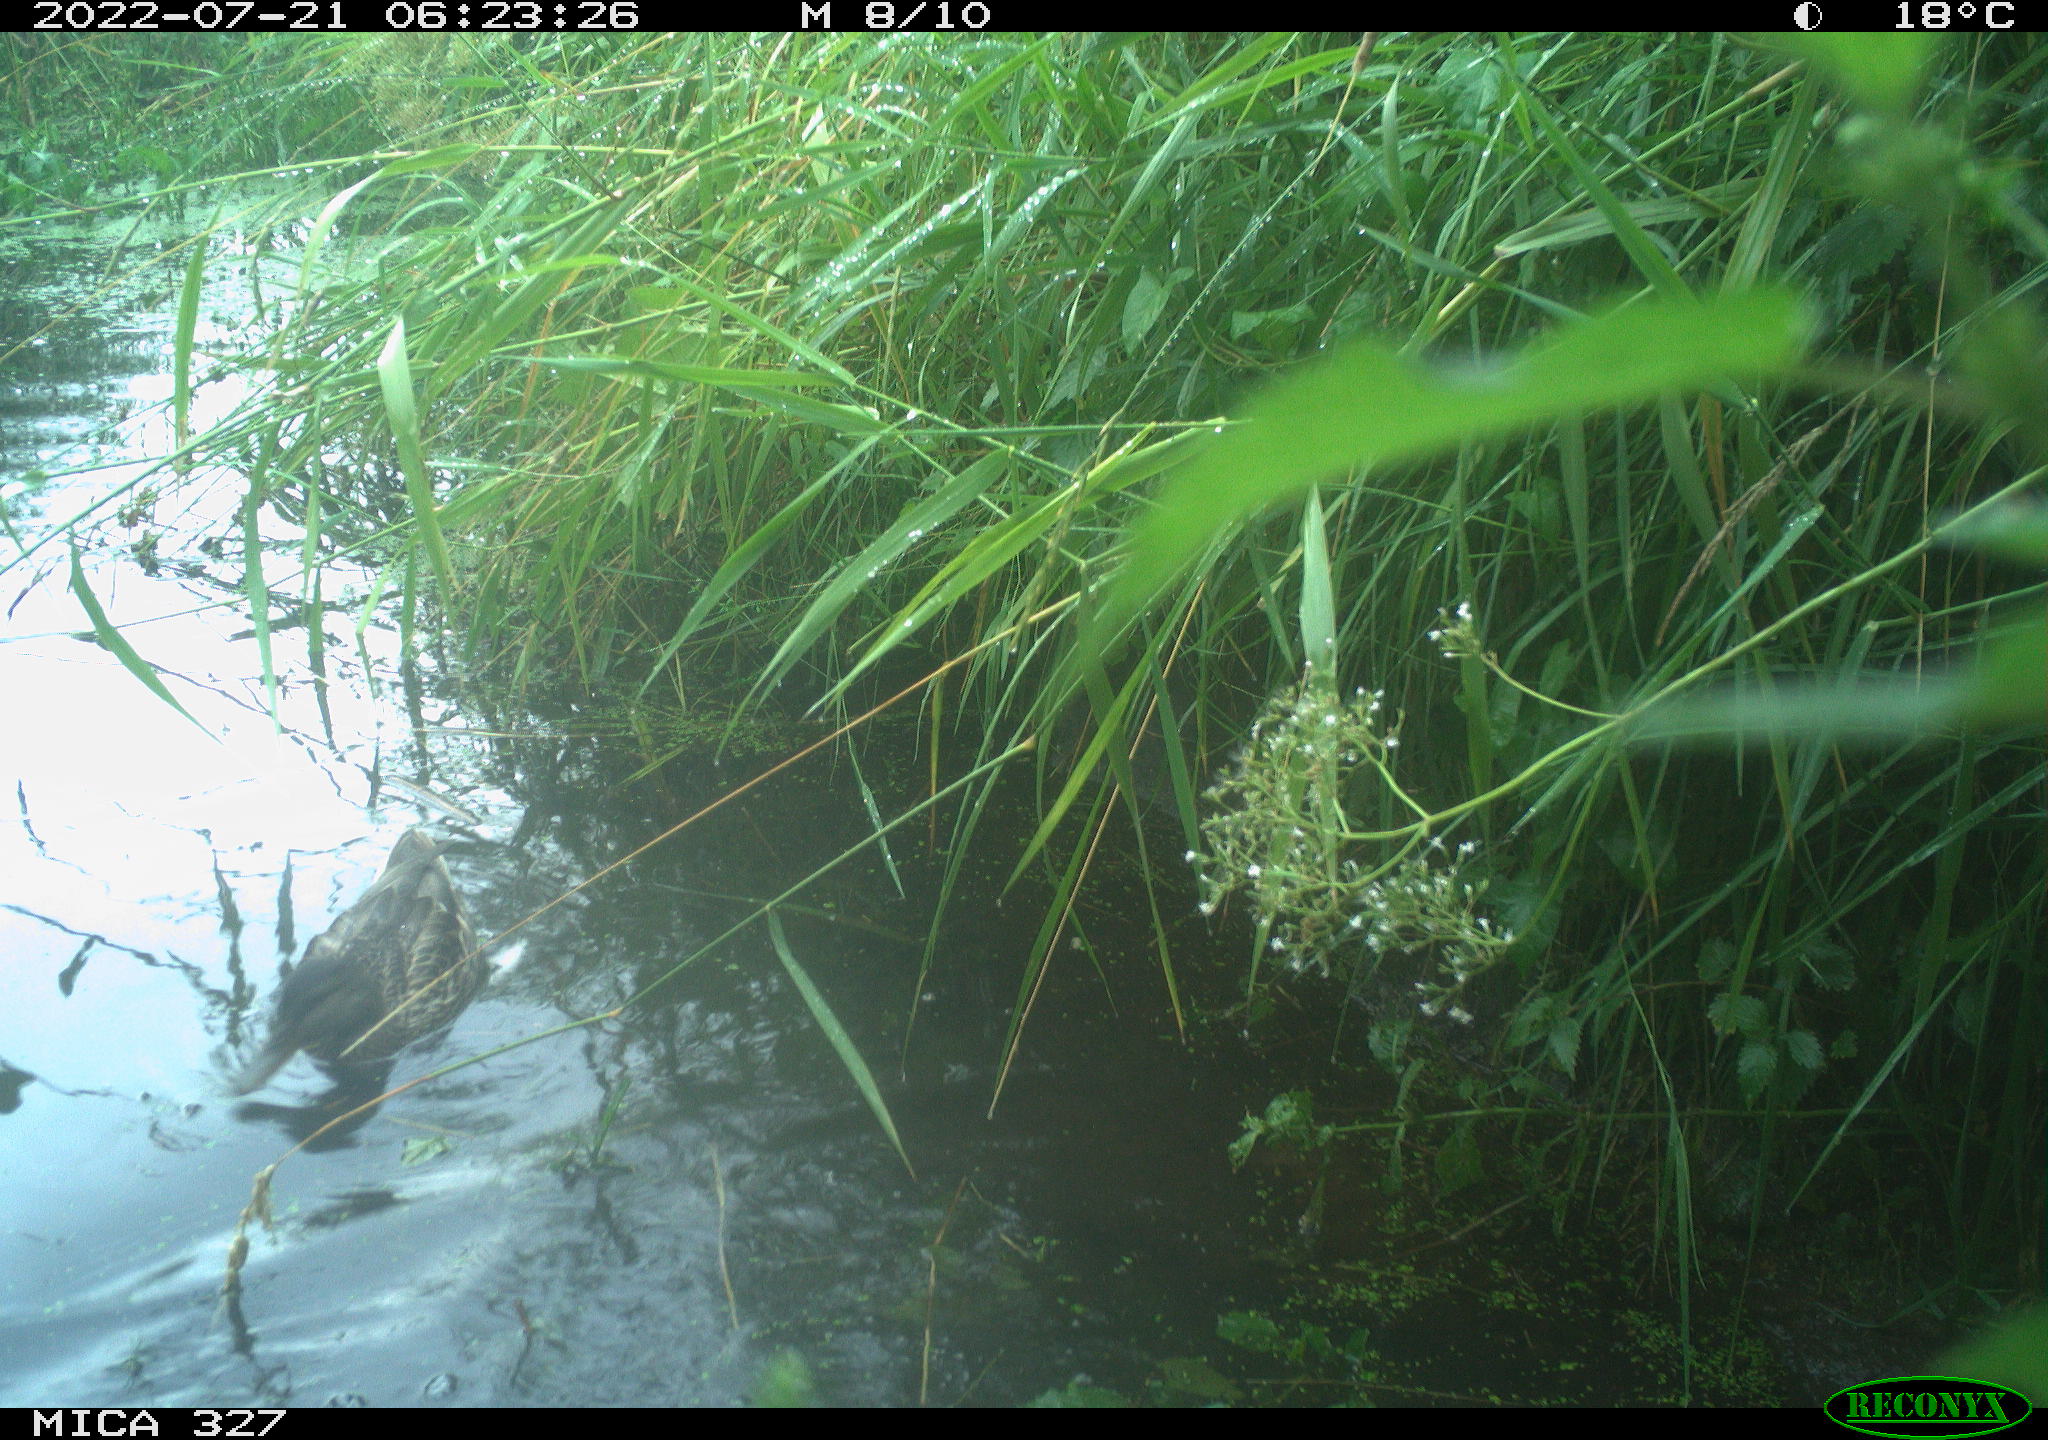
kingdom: Animalia
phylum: Chordata
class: Aves
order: Gruiformes
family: Rallidae
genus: Gallinula
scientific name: Gallinula chloropus
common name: Common moorhen
